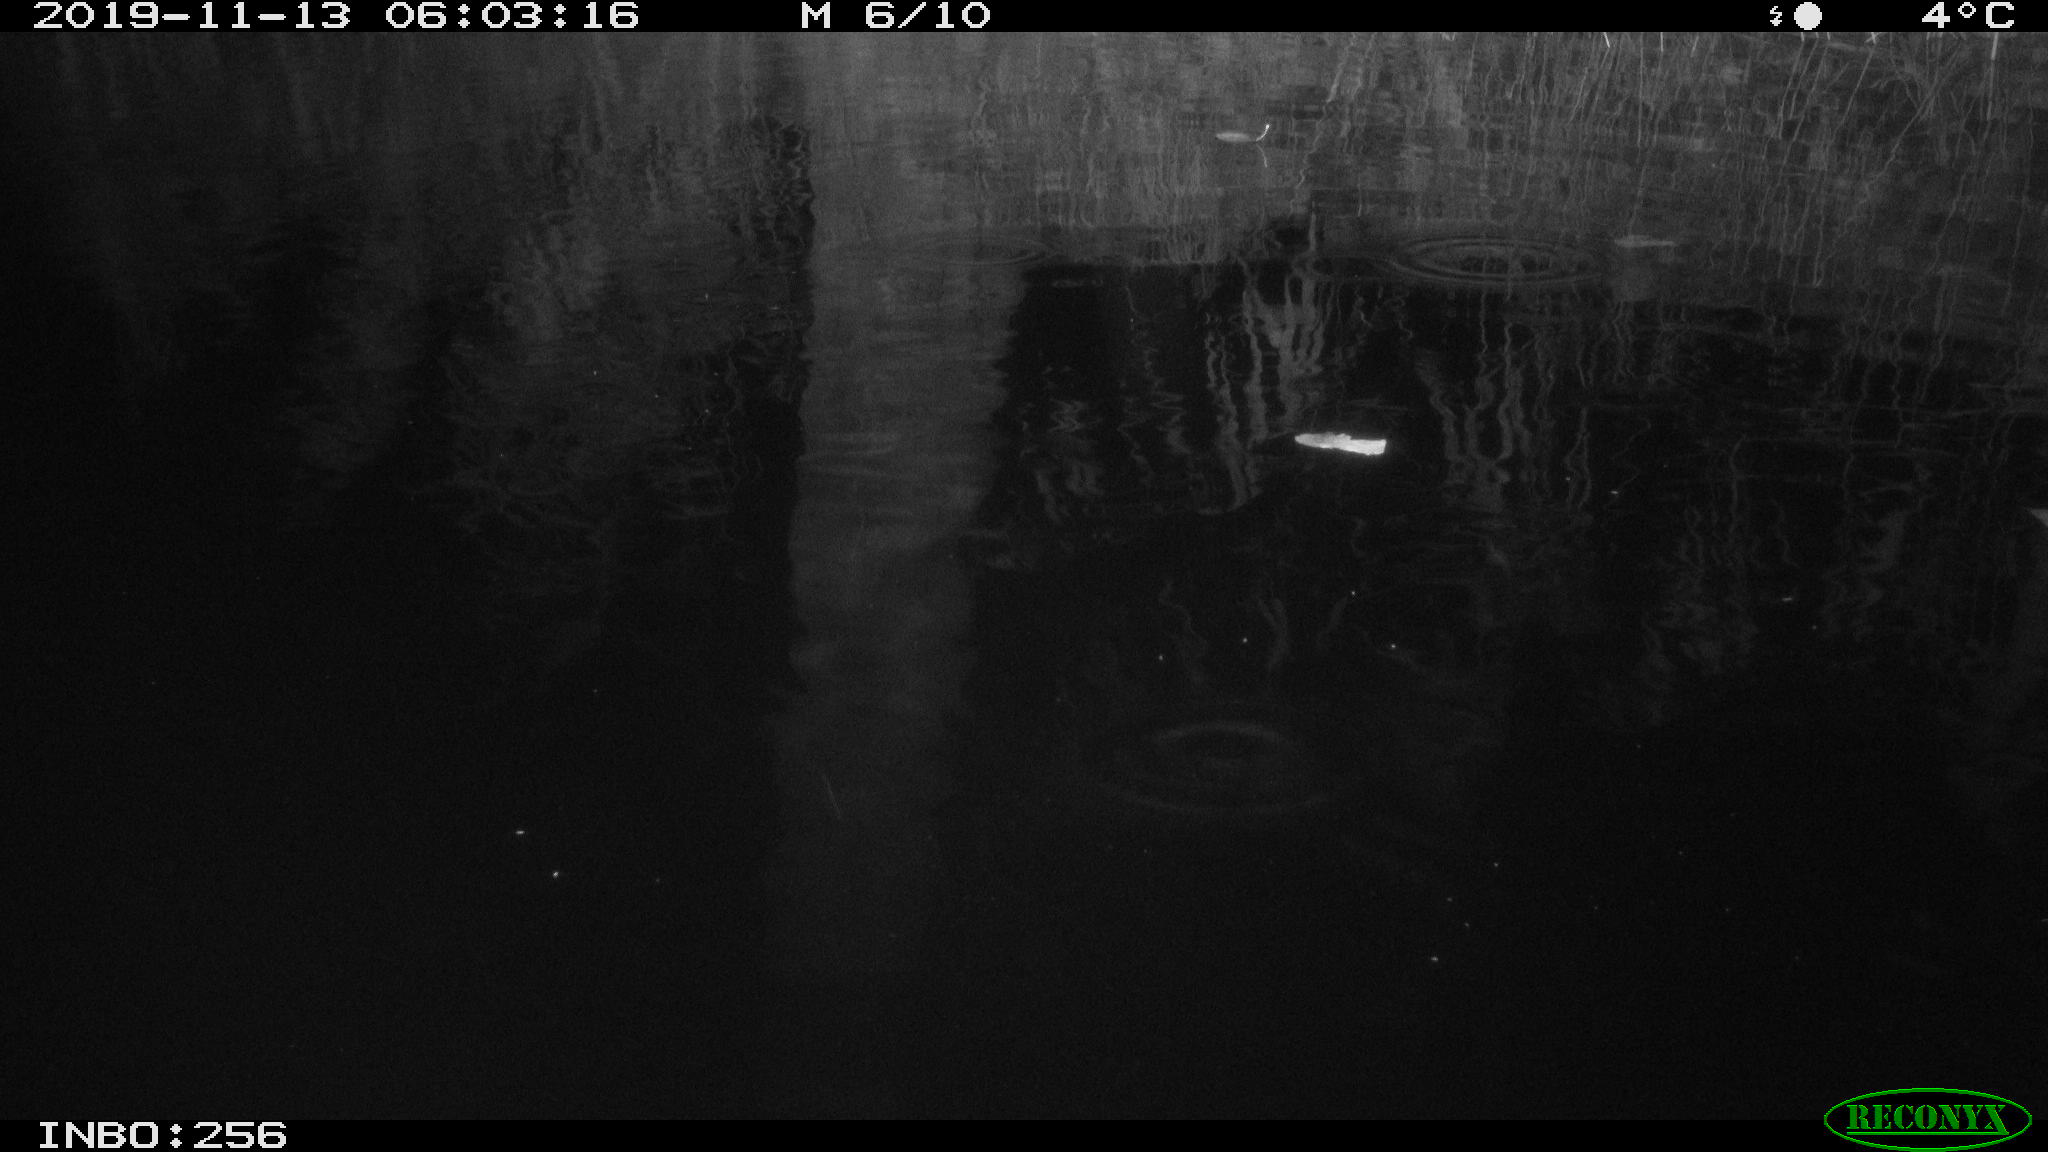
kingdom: Animalia
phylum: Chordata
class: Mammalia
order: Rodentia
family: Muridae
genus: Rattus
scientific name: Rattus norvegicus
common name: Brown rat
